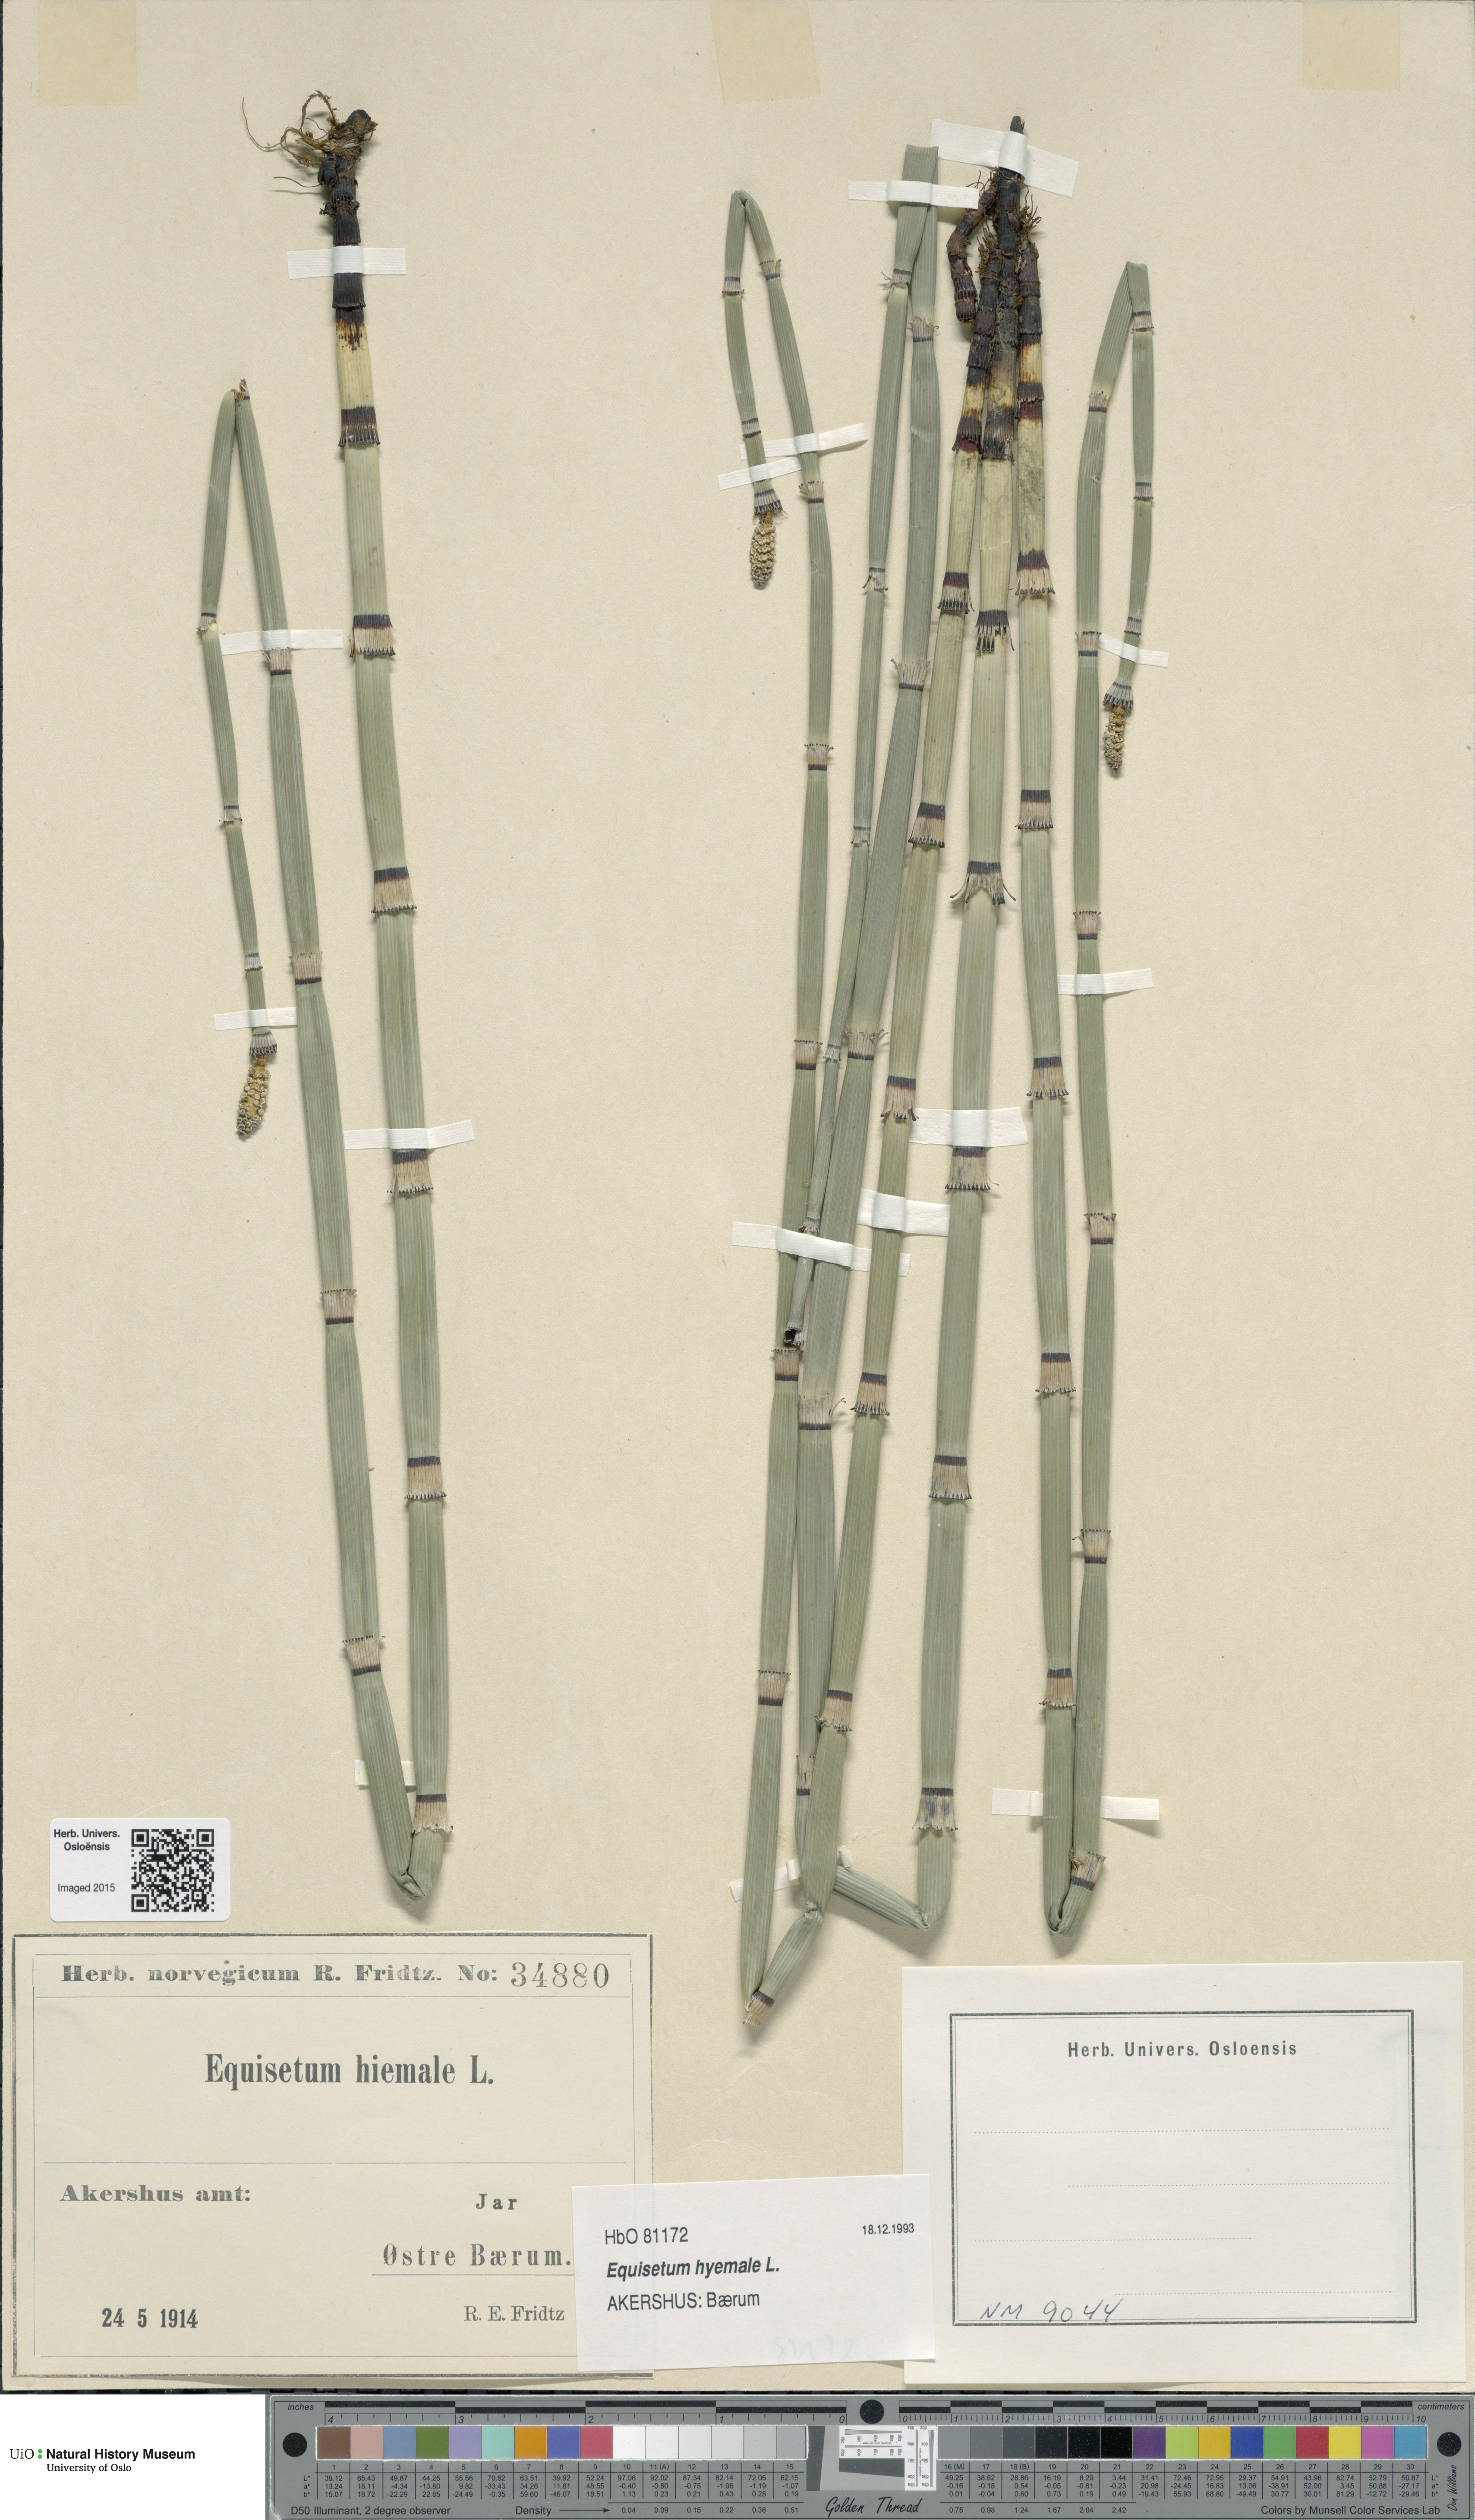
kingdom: Plantae
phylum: Tracheophyta
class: Polypodiopsida
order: Equisetales
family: Equisetaceae
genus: Equisetum
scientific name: Equisetum hyemale
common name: Rough horsetail
